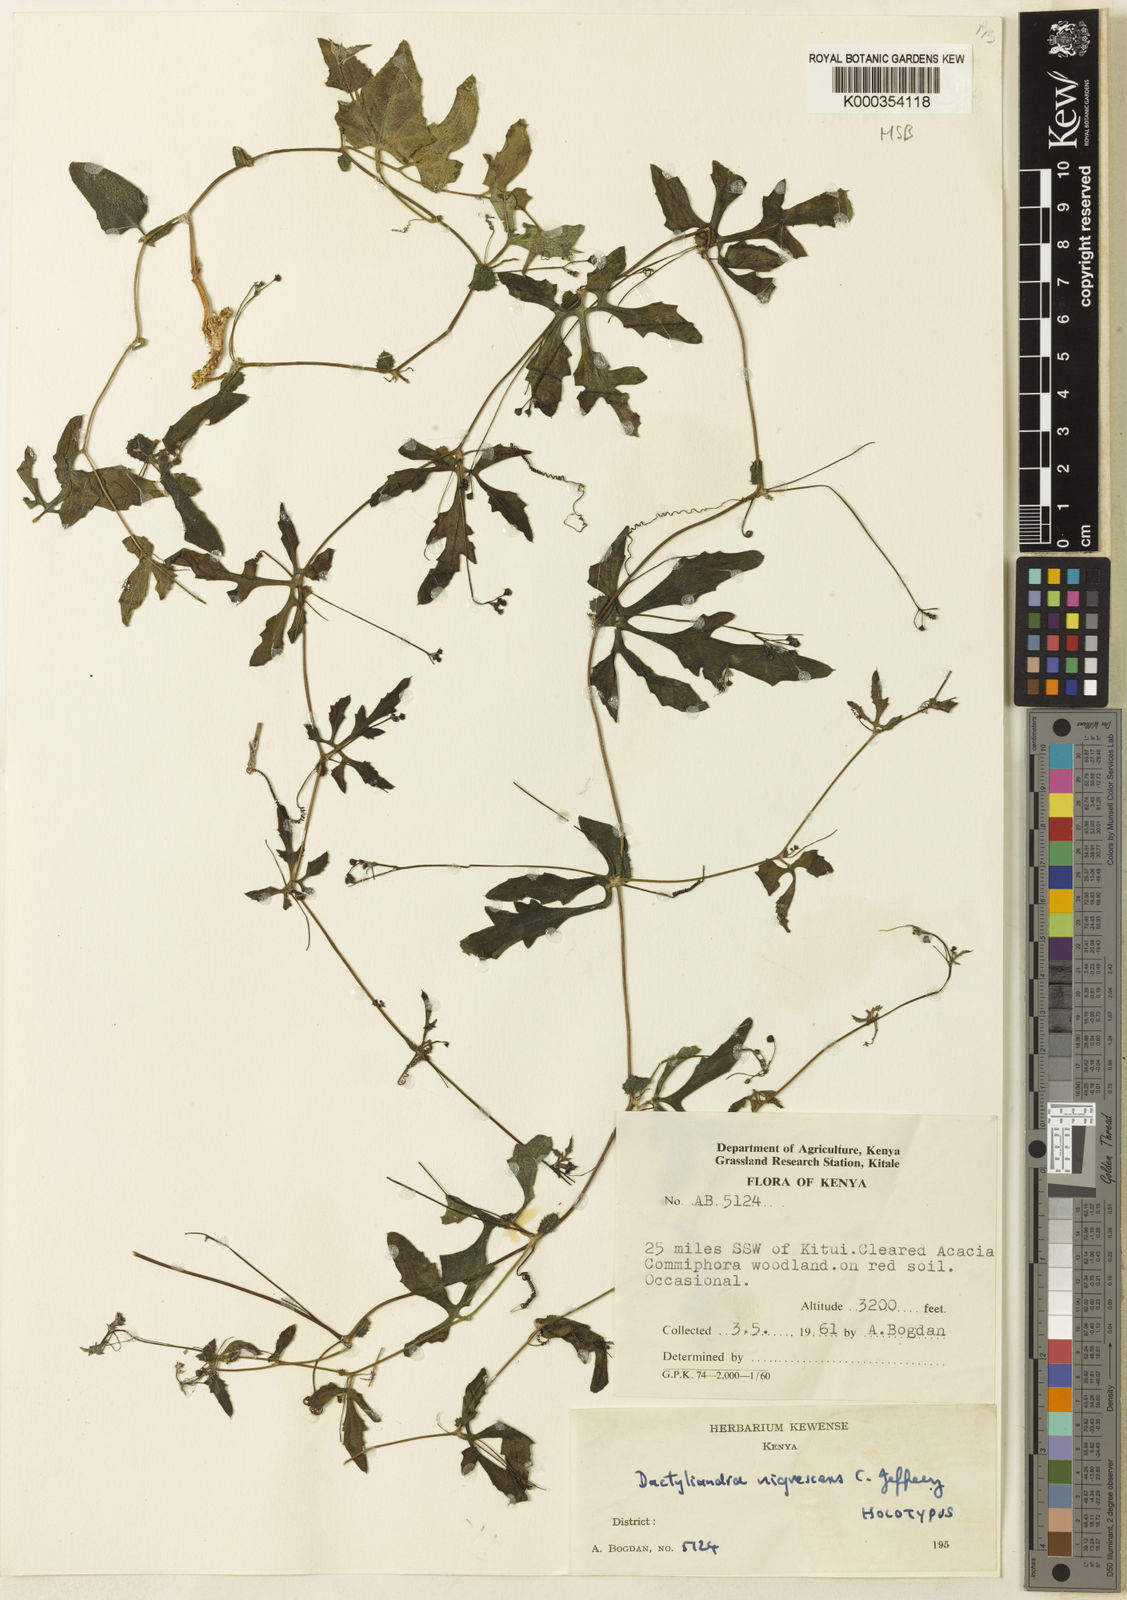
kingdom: Plantae
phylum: Tracheophyta
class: Magnoliopsida
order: Cucurbitales
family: Cucurbitaceae
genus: Dactyliandra
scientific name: Dactyliandra stefaninii
